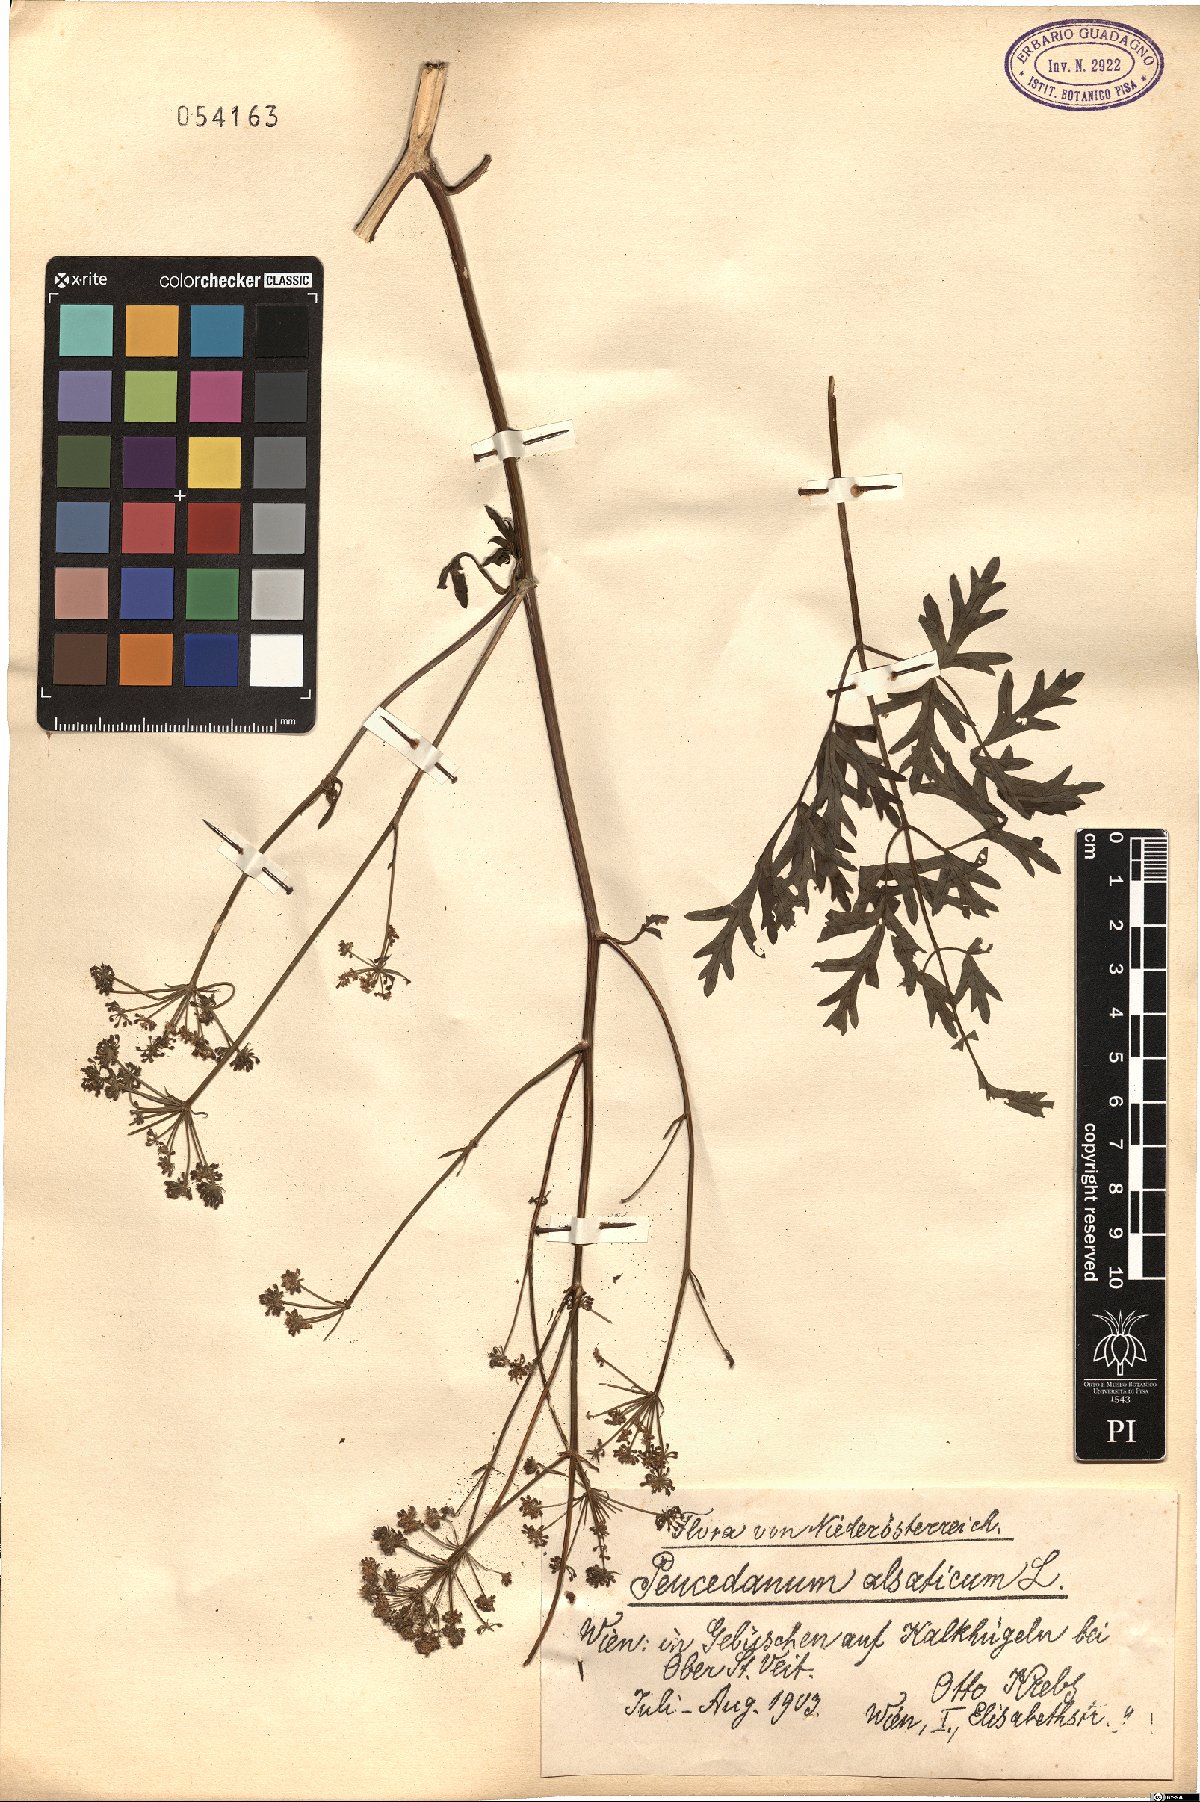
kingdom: Plantae
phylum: Tracheophyta
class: Magnoliopsida
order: Apiales
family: Apiaceae
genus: Xanthoselinum
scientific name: Xanthoselinum alsaticum
